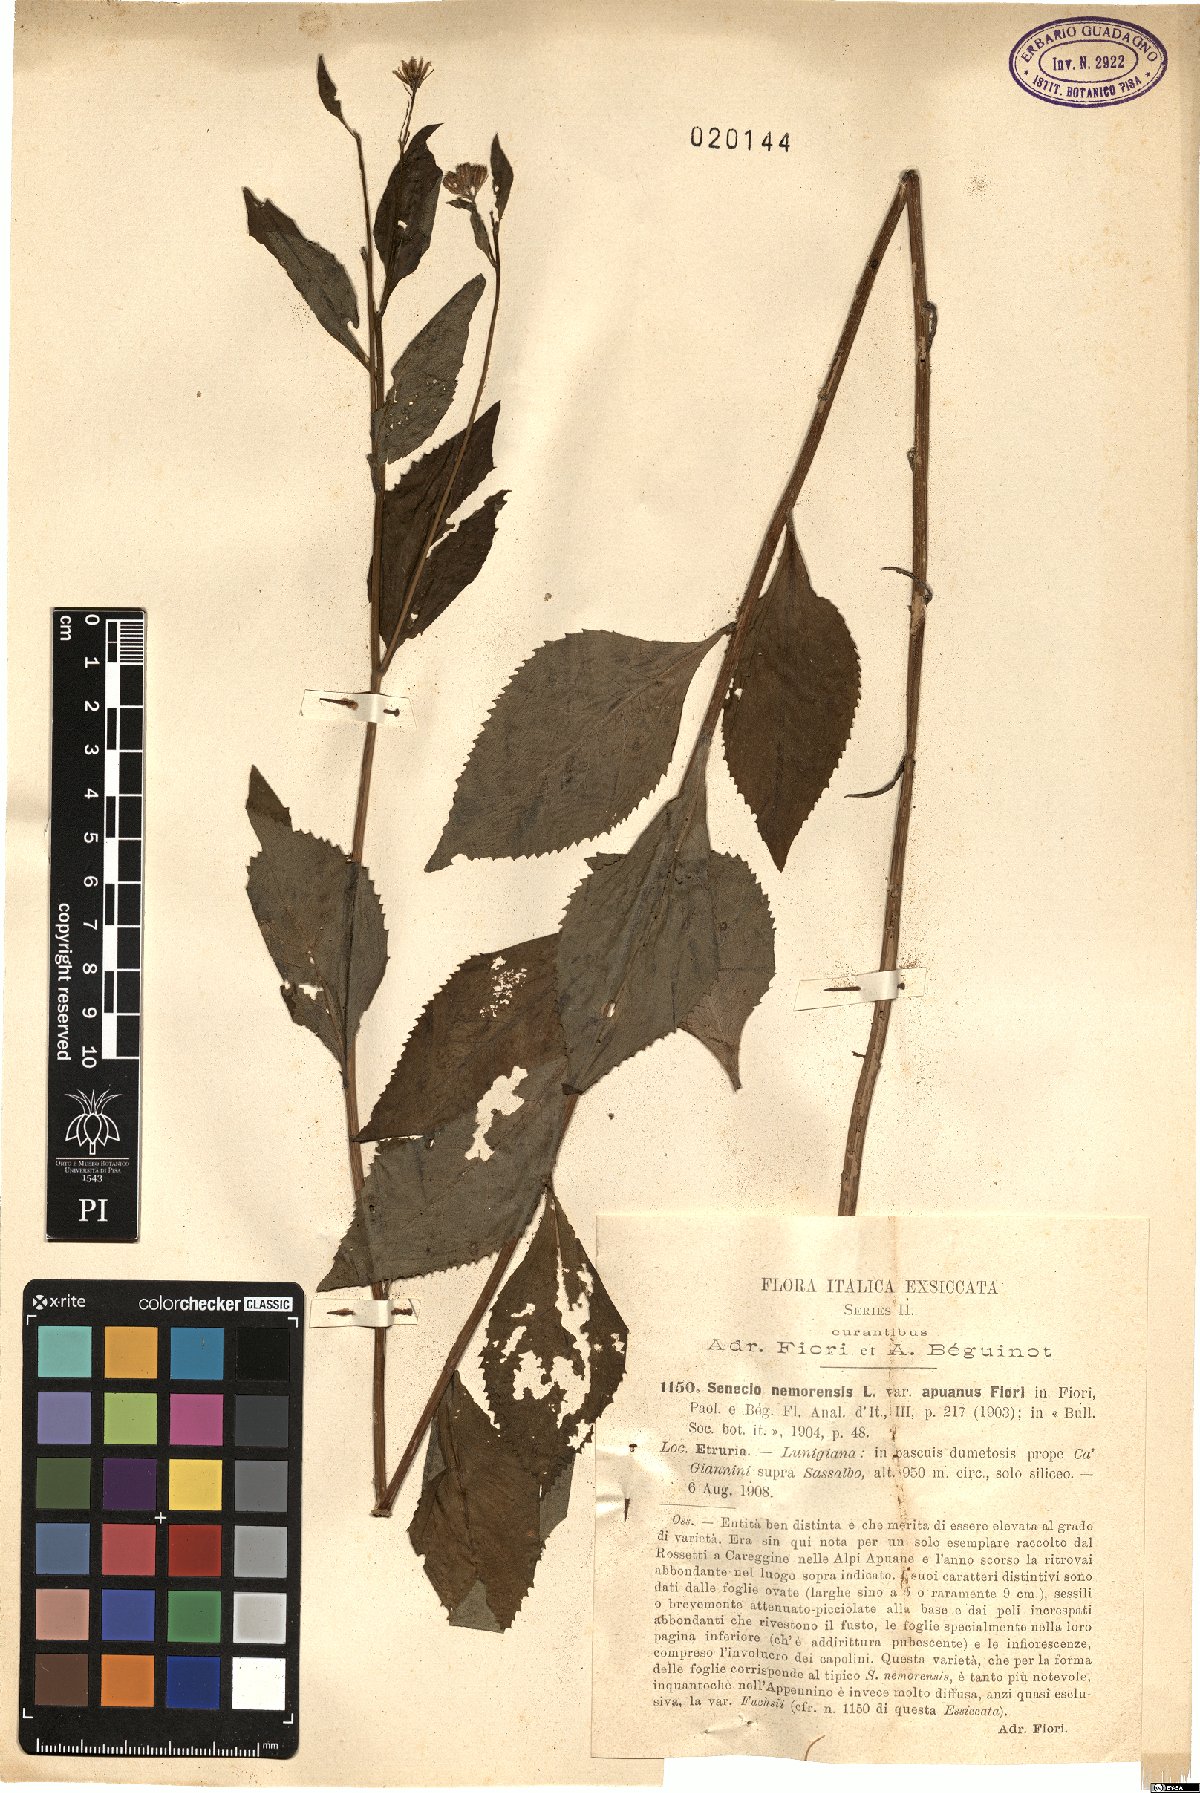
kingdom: Plantae
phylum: Tracheophyta
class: Magnoliopsida
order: Asterales
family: Asteraceae
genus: Senecio
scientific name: Senecio nemorensis
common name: Alpine ragwort
